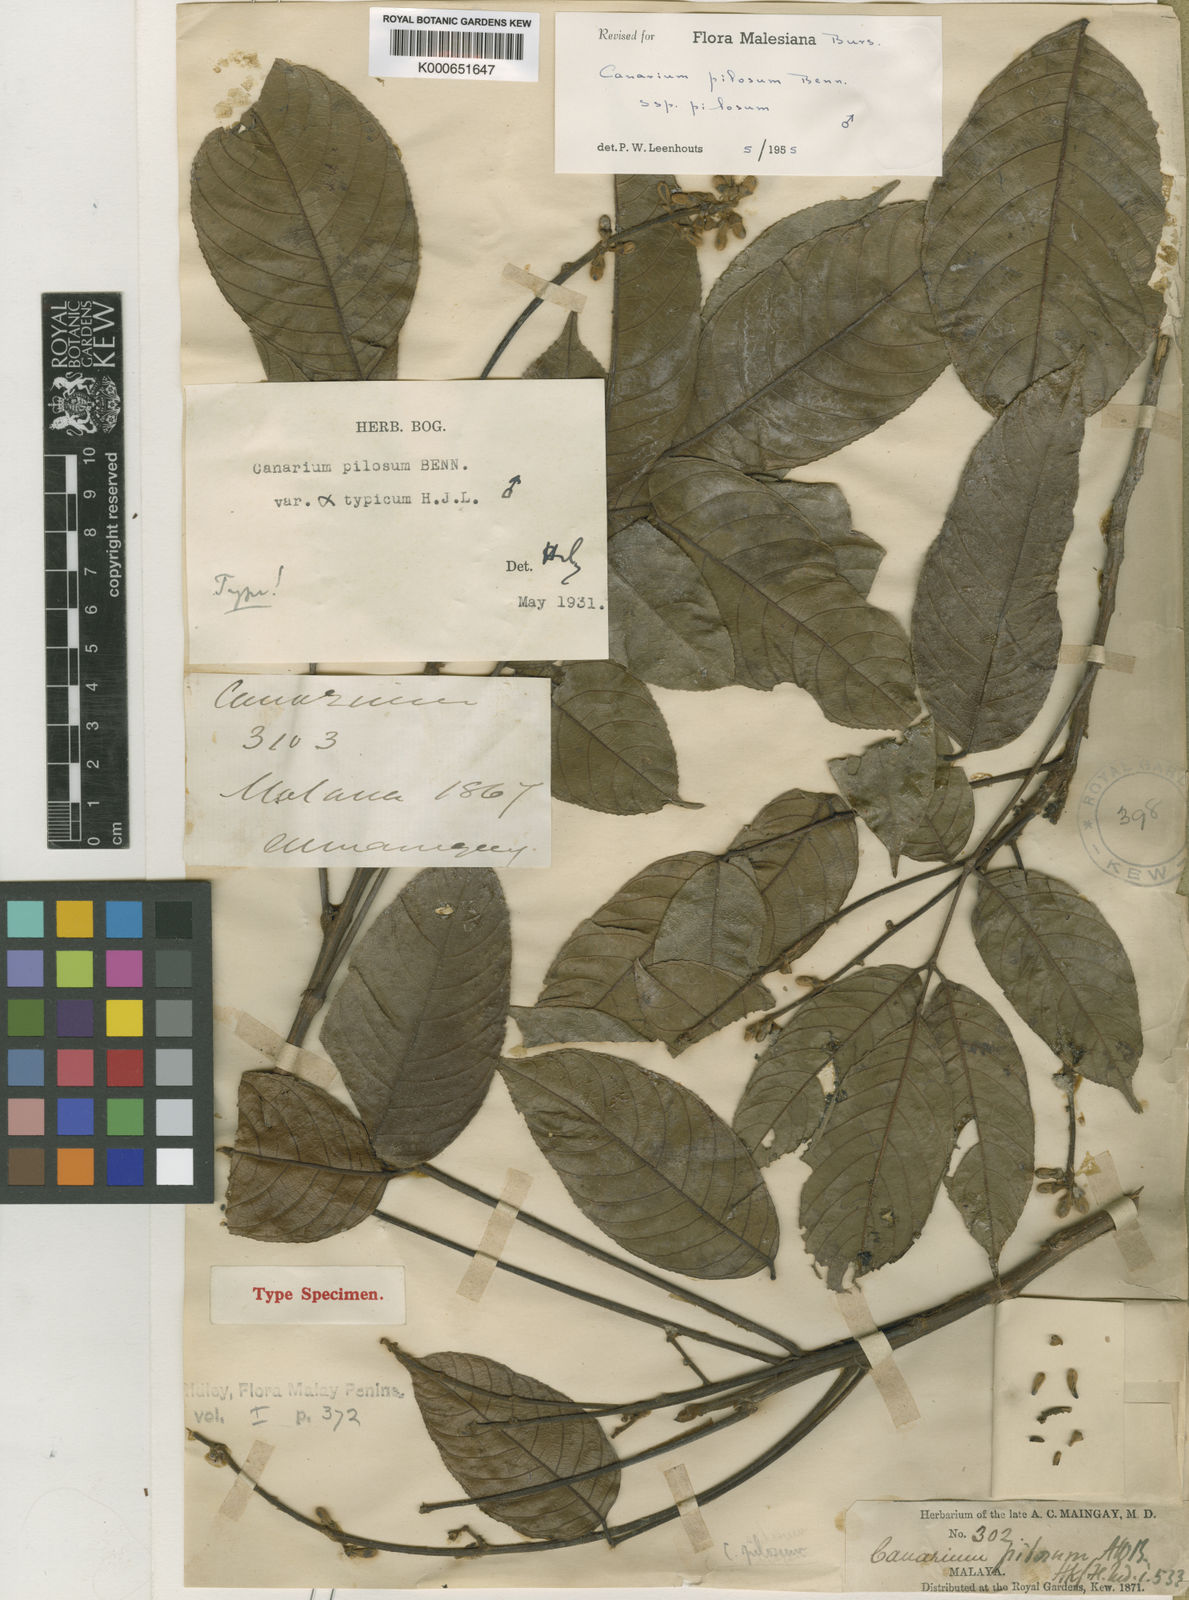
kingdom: Plantae
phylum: Tracheophyta
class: Magnoliopsida
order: Sapindales
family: Burseraceae
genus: Canarium
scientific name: Canarium pilosum
